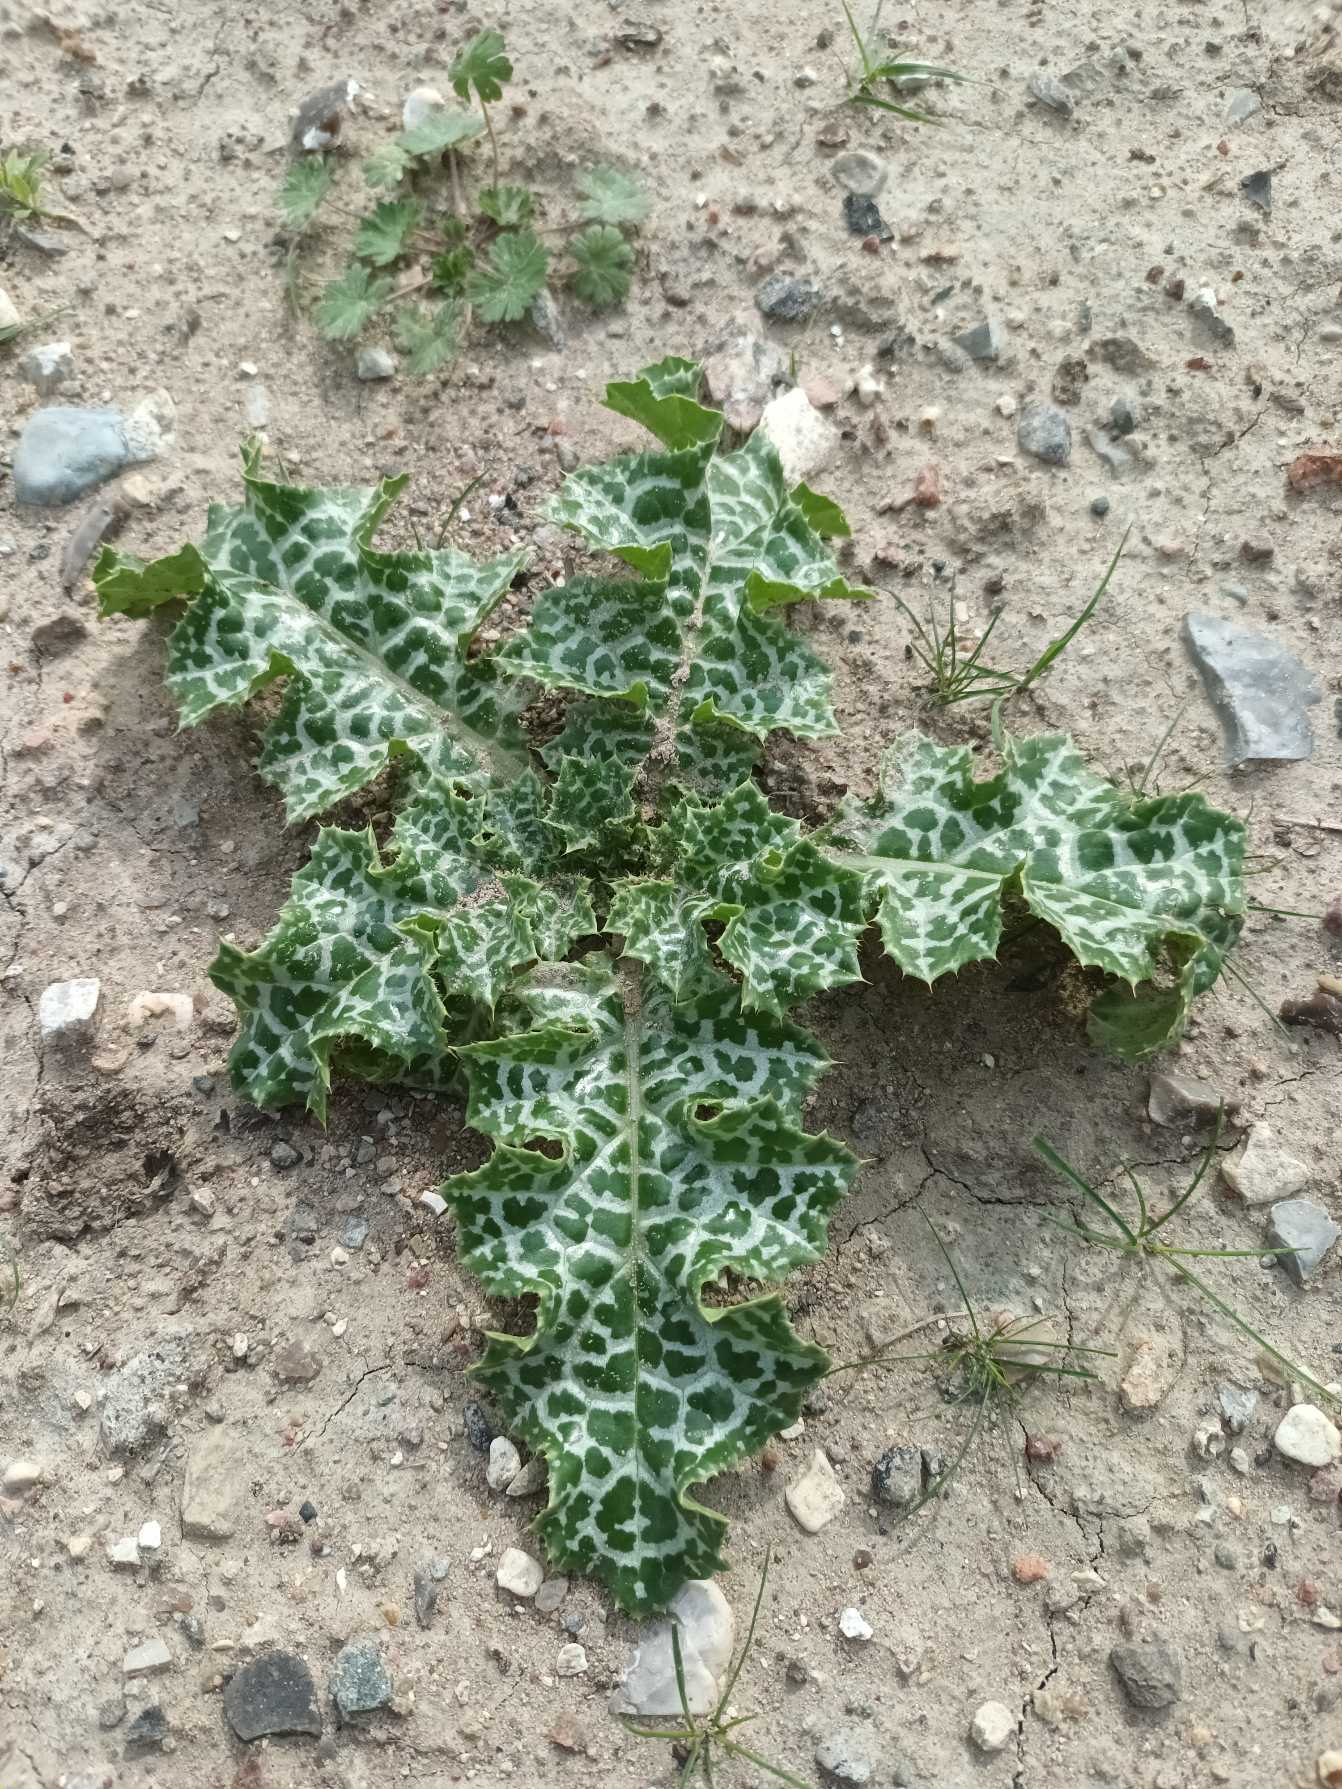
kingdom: Plantae
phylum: Tracheophyta
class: Magnoliopsida
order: Asterales
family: Asteraceae
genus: Silybum
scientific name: Silybum marianum
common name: Marietidsel
